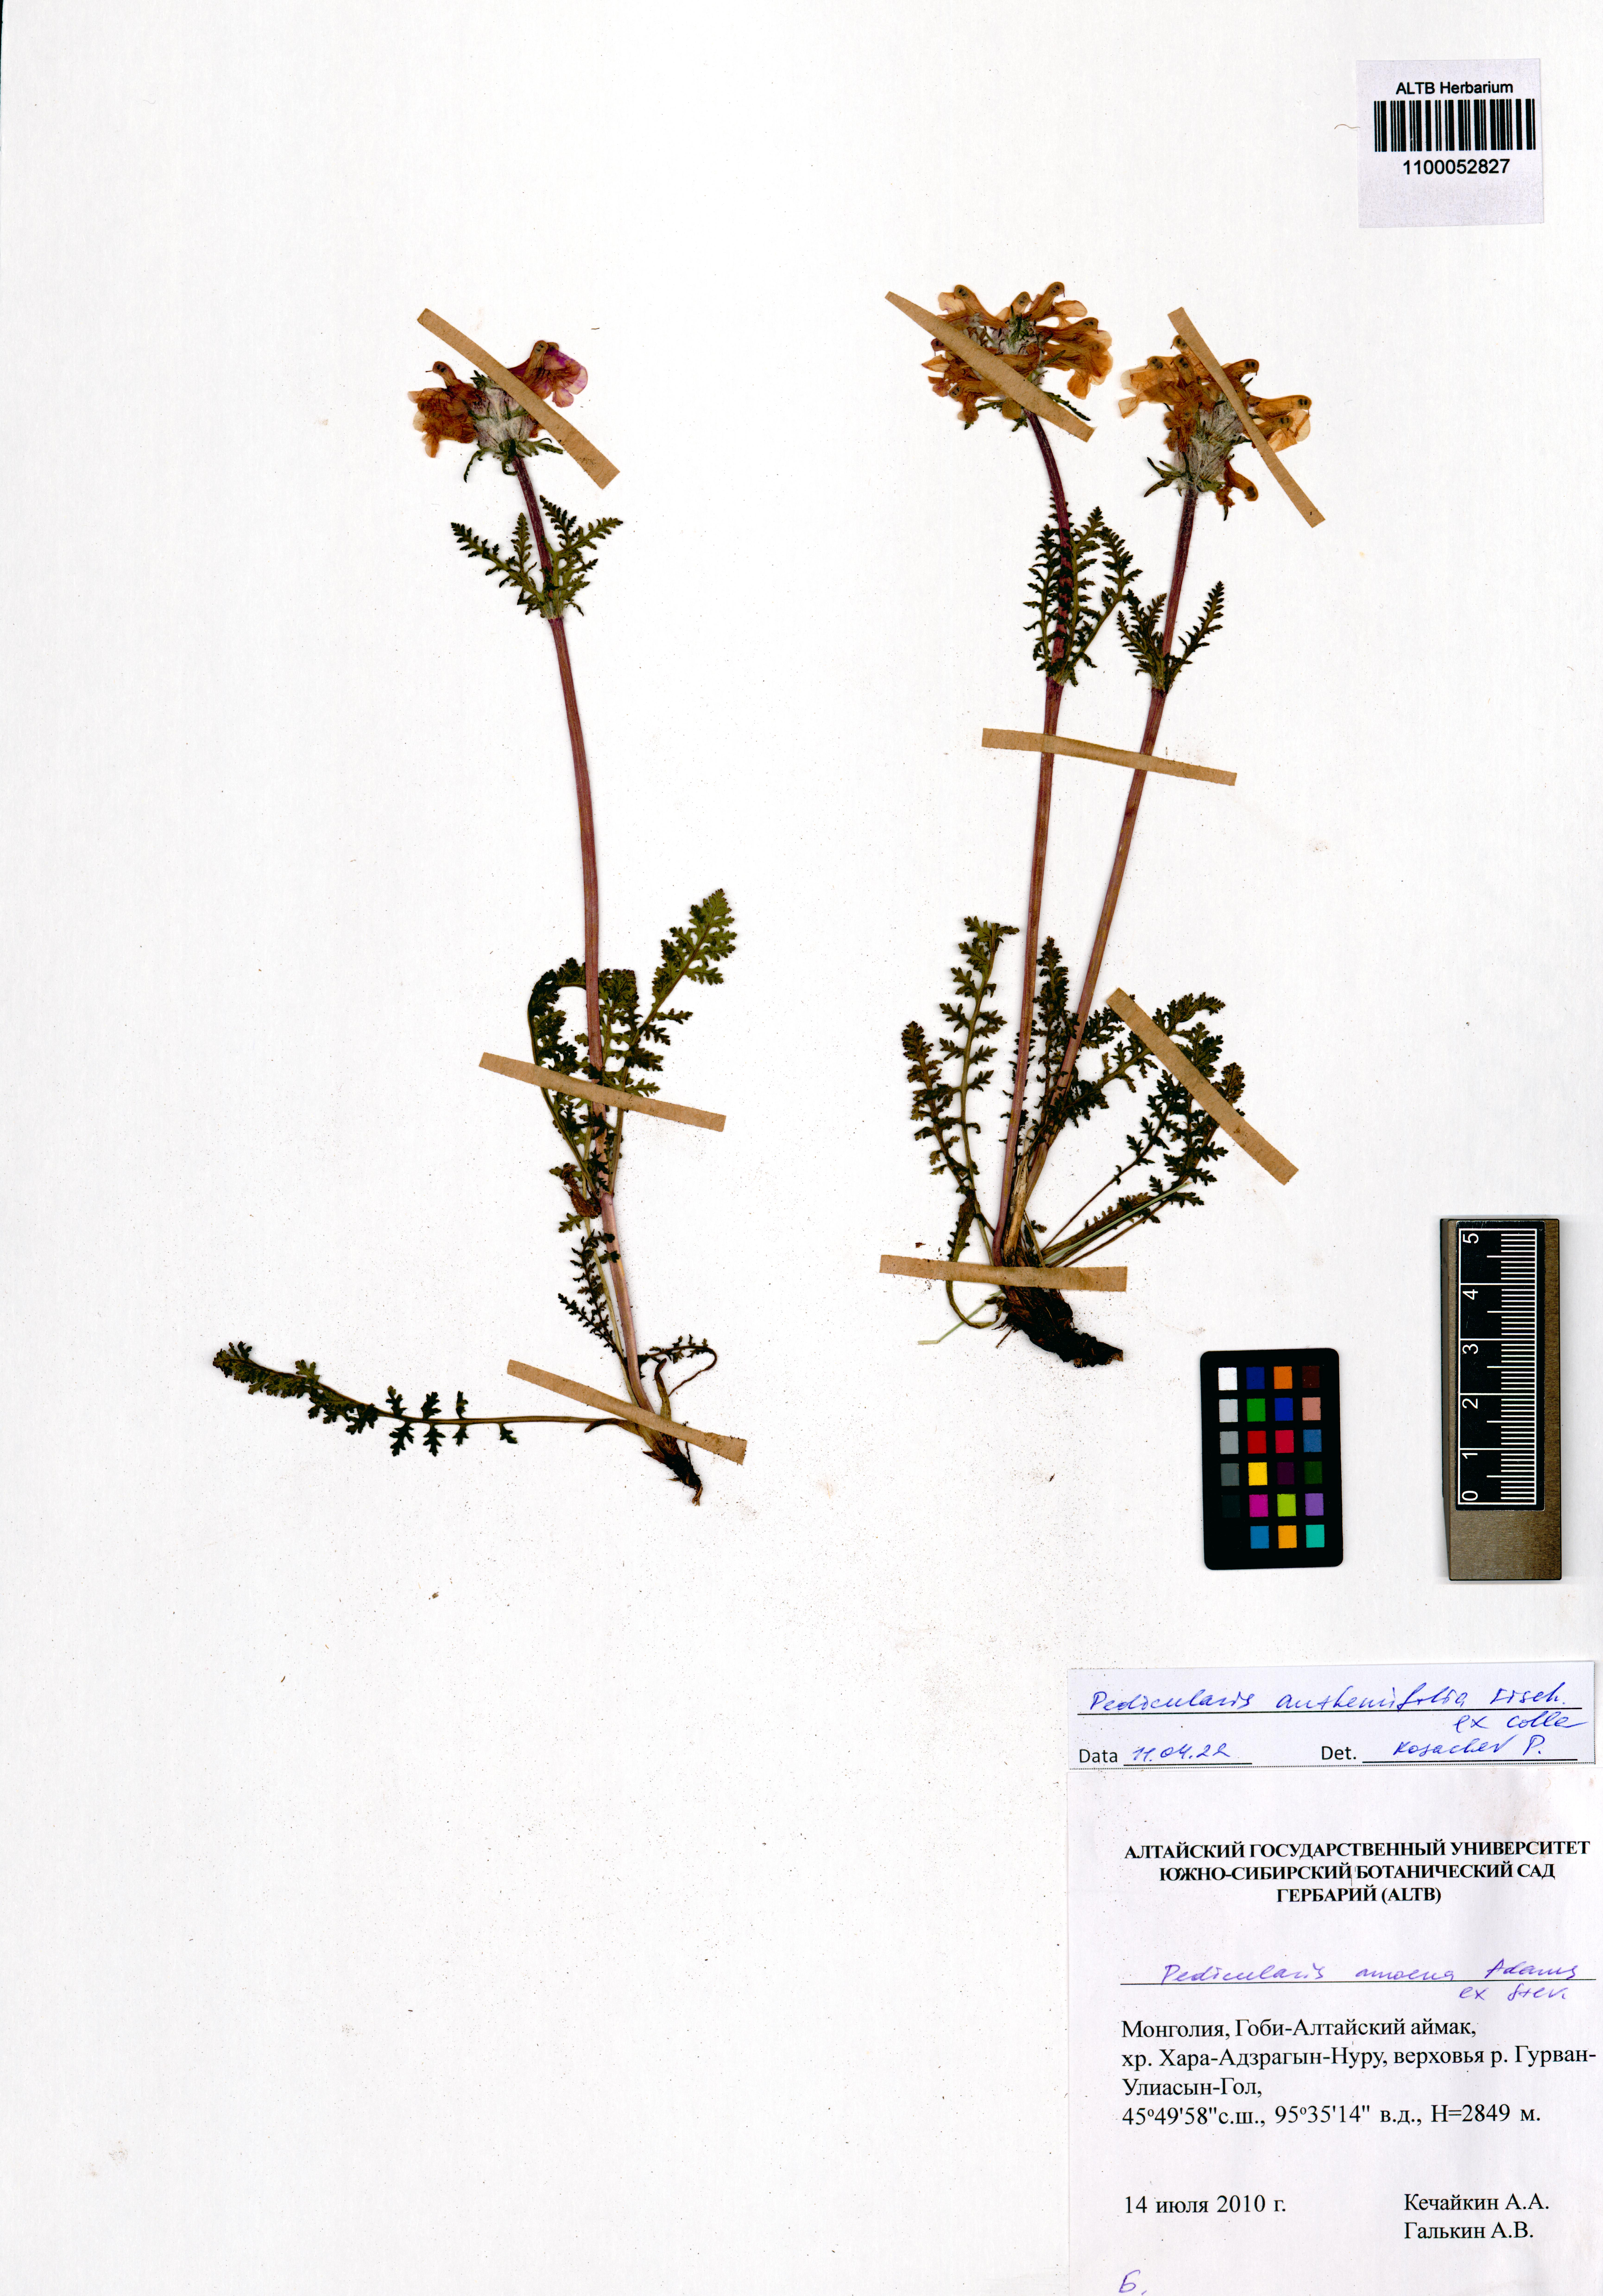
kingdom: Plantae
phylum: Tracheophyta
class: Magnoliopsida
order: Lamiales
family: Orobanchaceae
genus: Pedicularis
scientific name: Pedicularis anthemifolia
